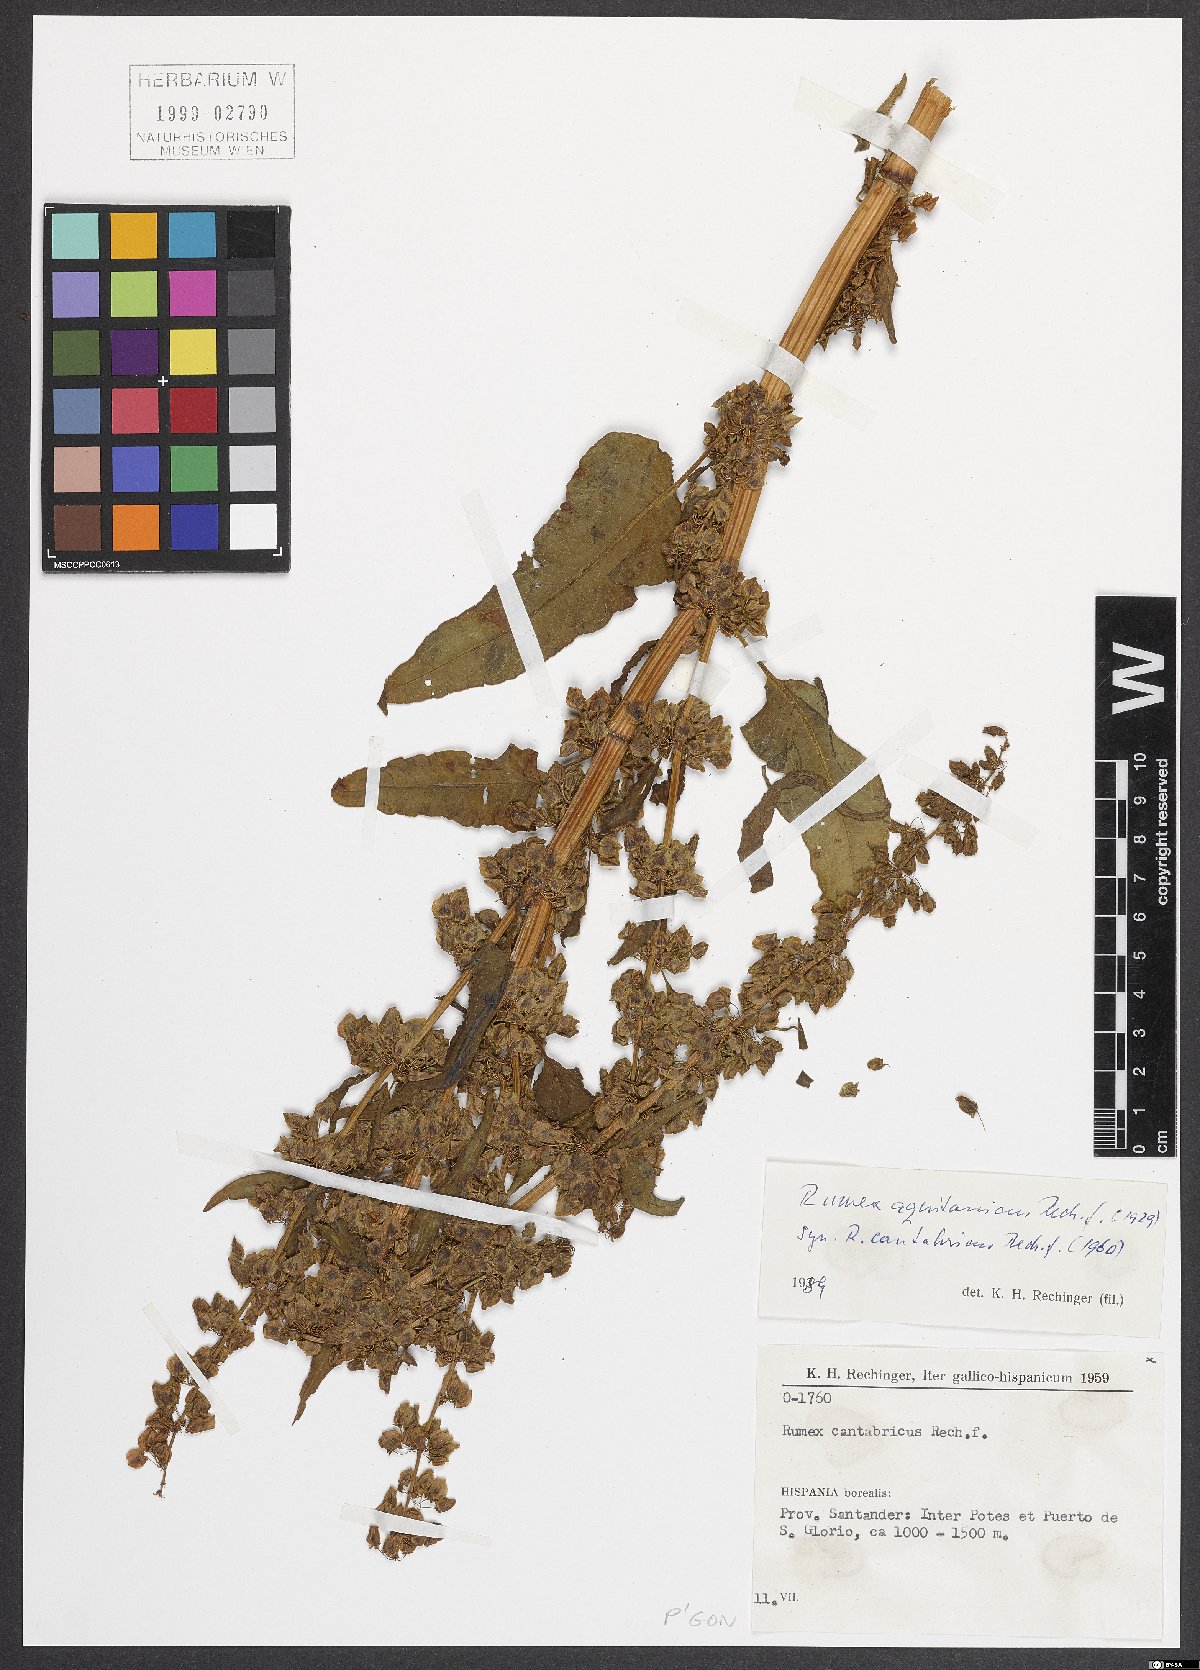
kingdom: Plantae
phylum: Tracheophyta
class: Magnoliopsida
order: Caryophyllales
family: Polygonaceae
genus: Rumex
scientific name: Rumex aquitanicus
